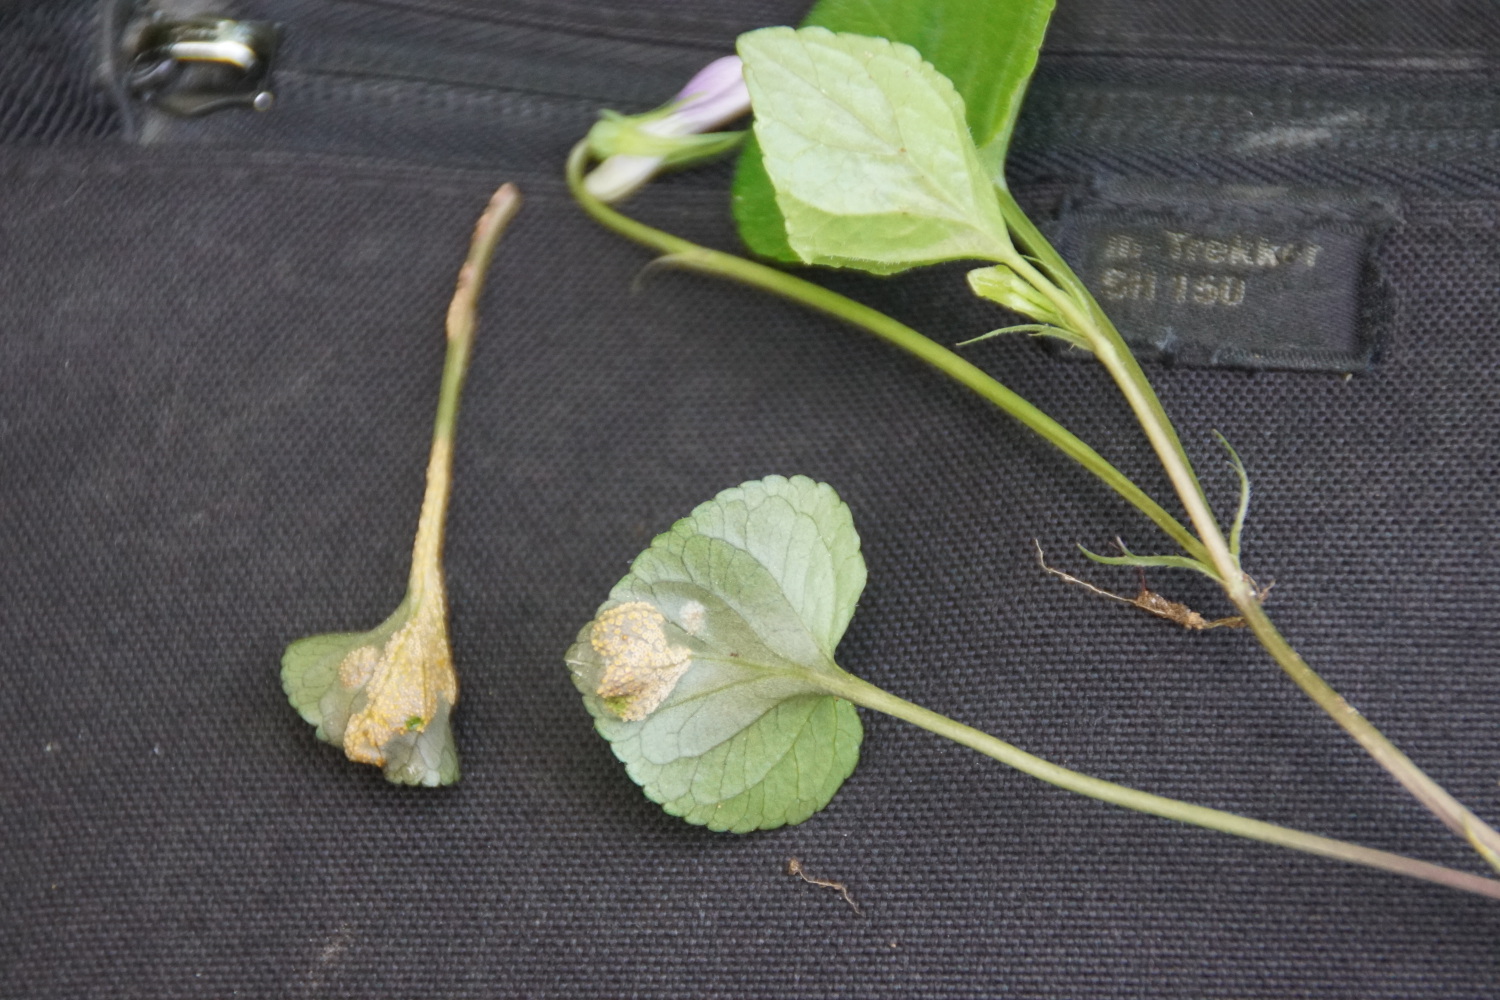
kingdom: Fungi
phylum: Basidiomycota
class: Pucciniomycetes
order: Pucciniales
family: Pucciniaceae
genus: Puccinia
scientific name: Puccinia violae
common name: viol-tvecellerust
